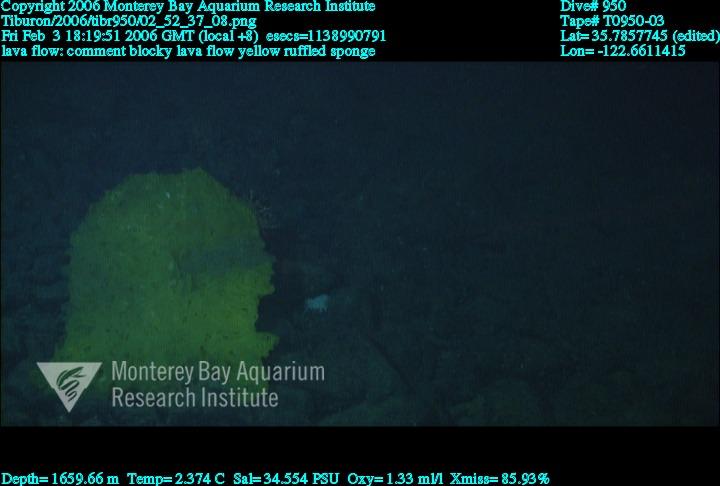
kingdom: Animalia
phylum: Porifera
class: Hexactinellida
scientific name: Hexactinellida
